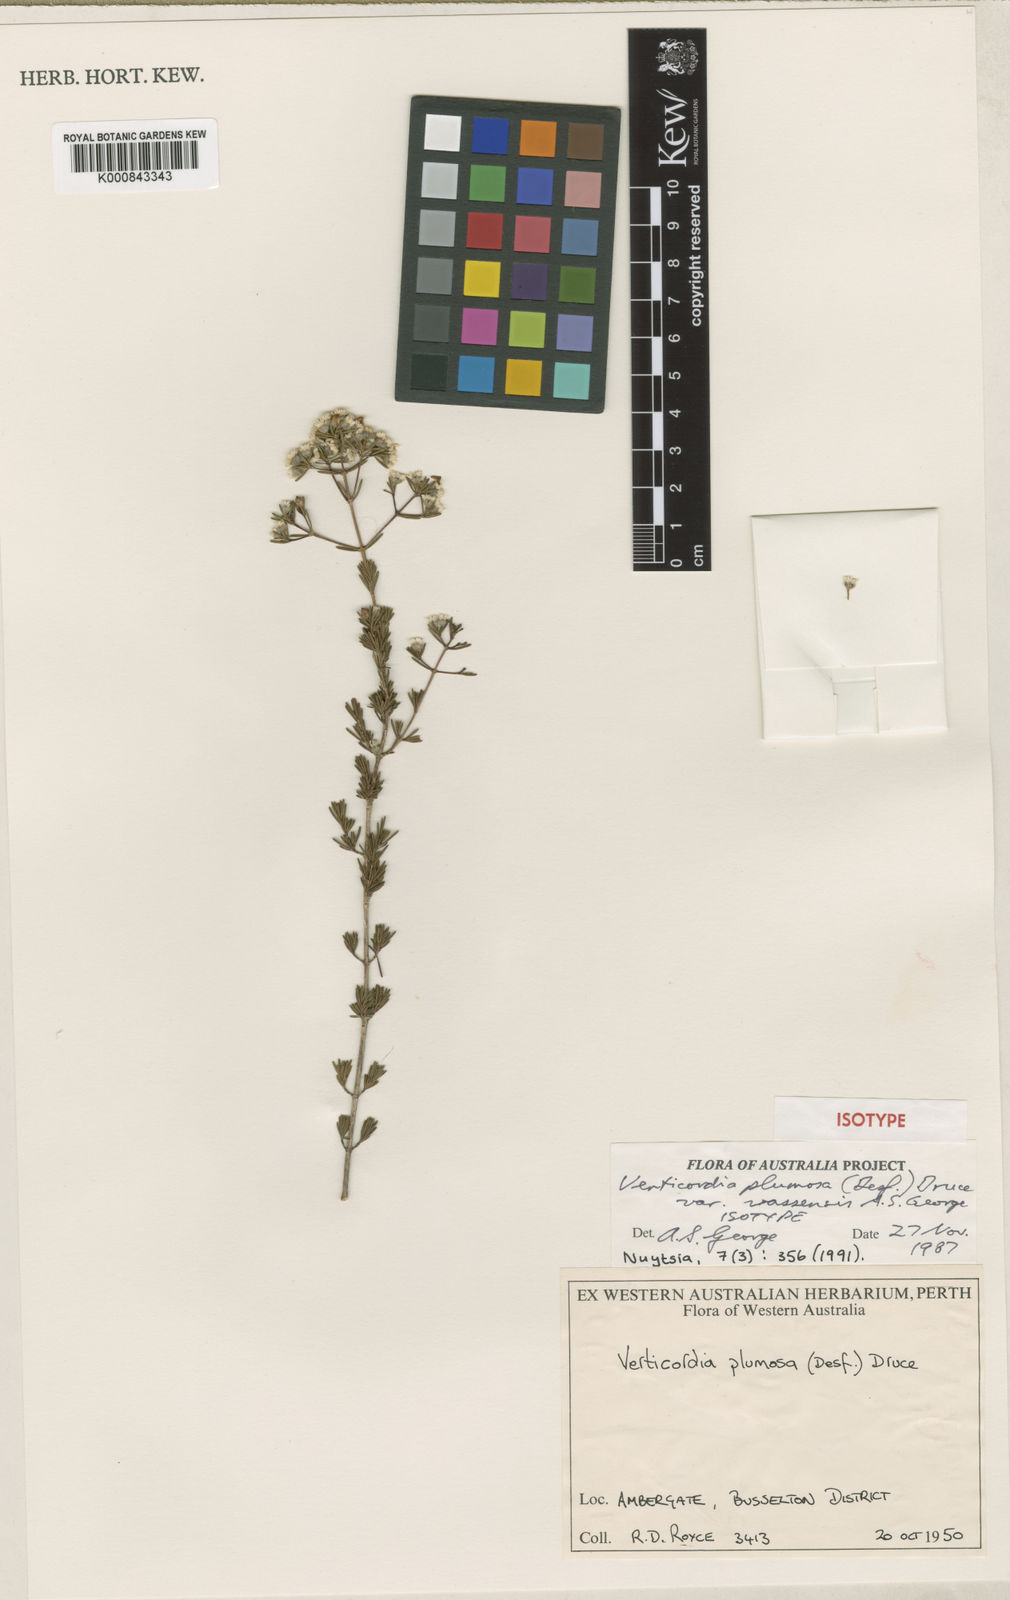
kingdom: Plantae
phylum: Tracheophyta
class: Magnoliopsida
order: Myrtales
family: Myrtaceae
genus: Verticordia
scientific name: Verticordia plumosa
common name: Plume feather-flower
